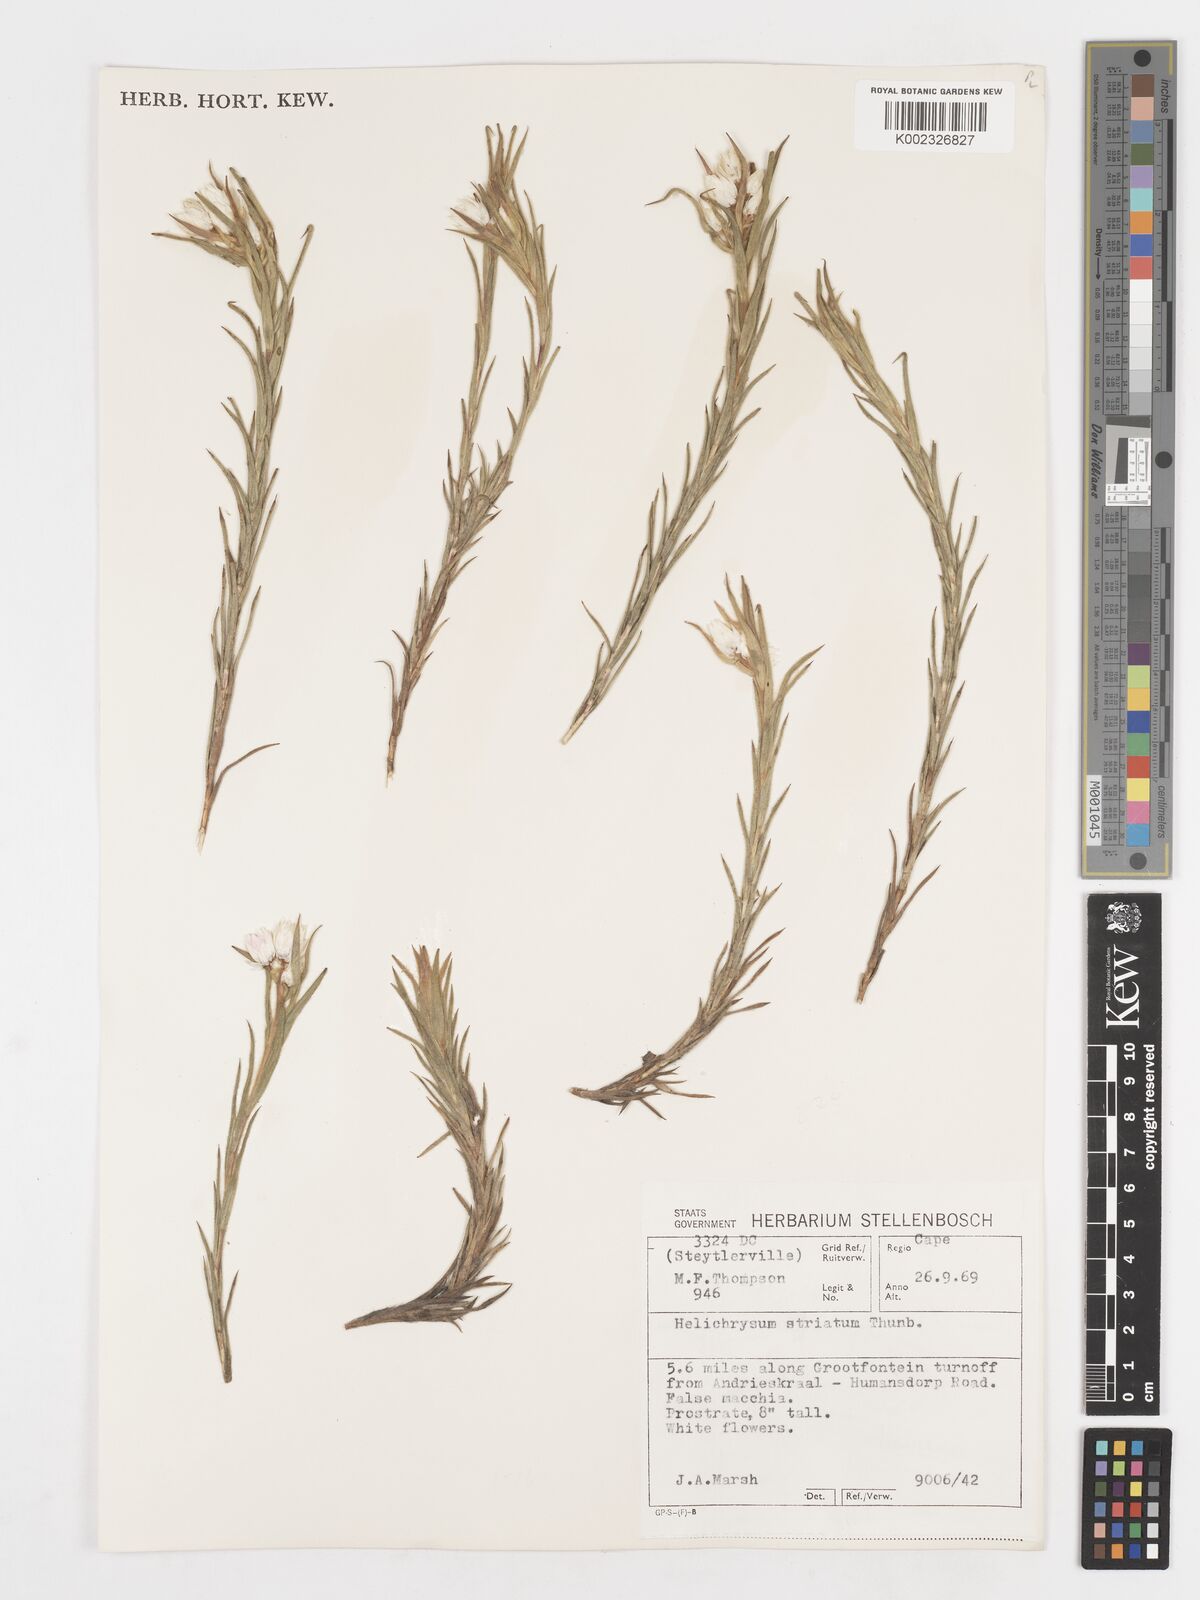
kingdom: Plantae
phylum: Tracheophyta
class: Magnoliopsida
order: Asterales
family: Asteraceae
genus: Achyranthemum
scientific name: Achyranthemum striatum
